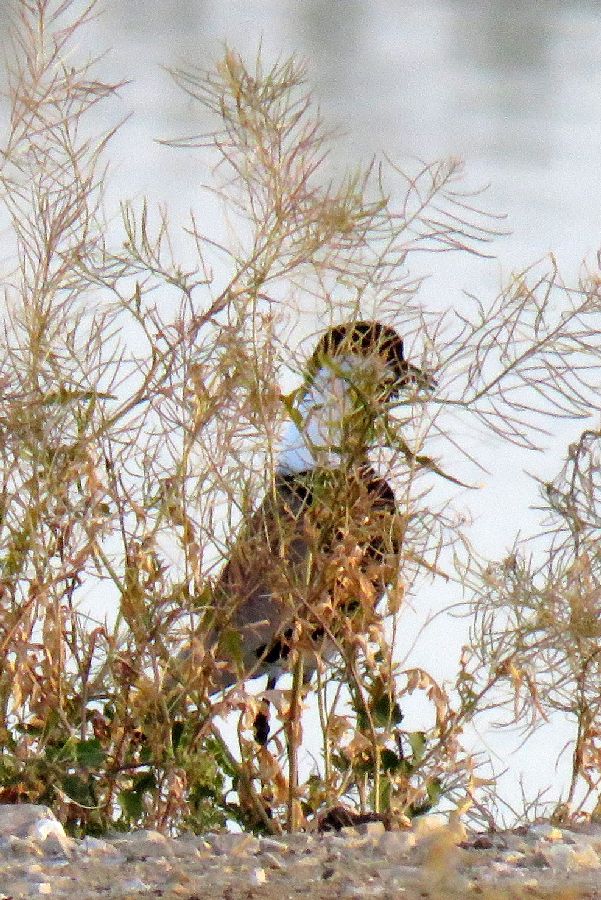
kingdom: Animalia
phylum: Chordata
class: Aves
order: Charadriiformes
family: Charadriidae
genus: Vanellus
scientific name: Vanellus spinosus
